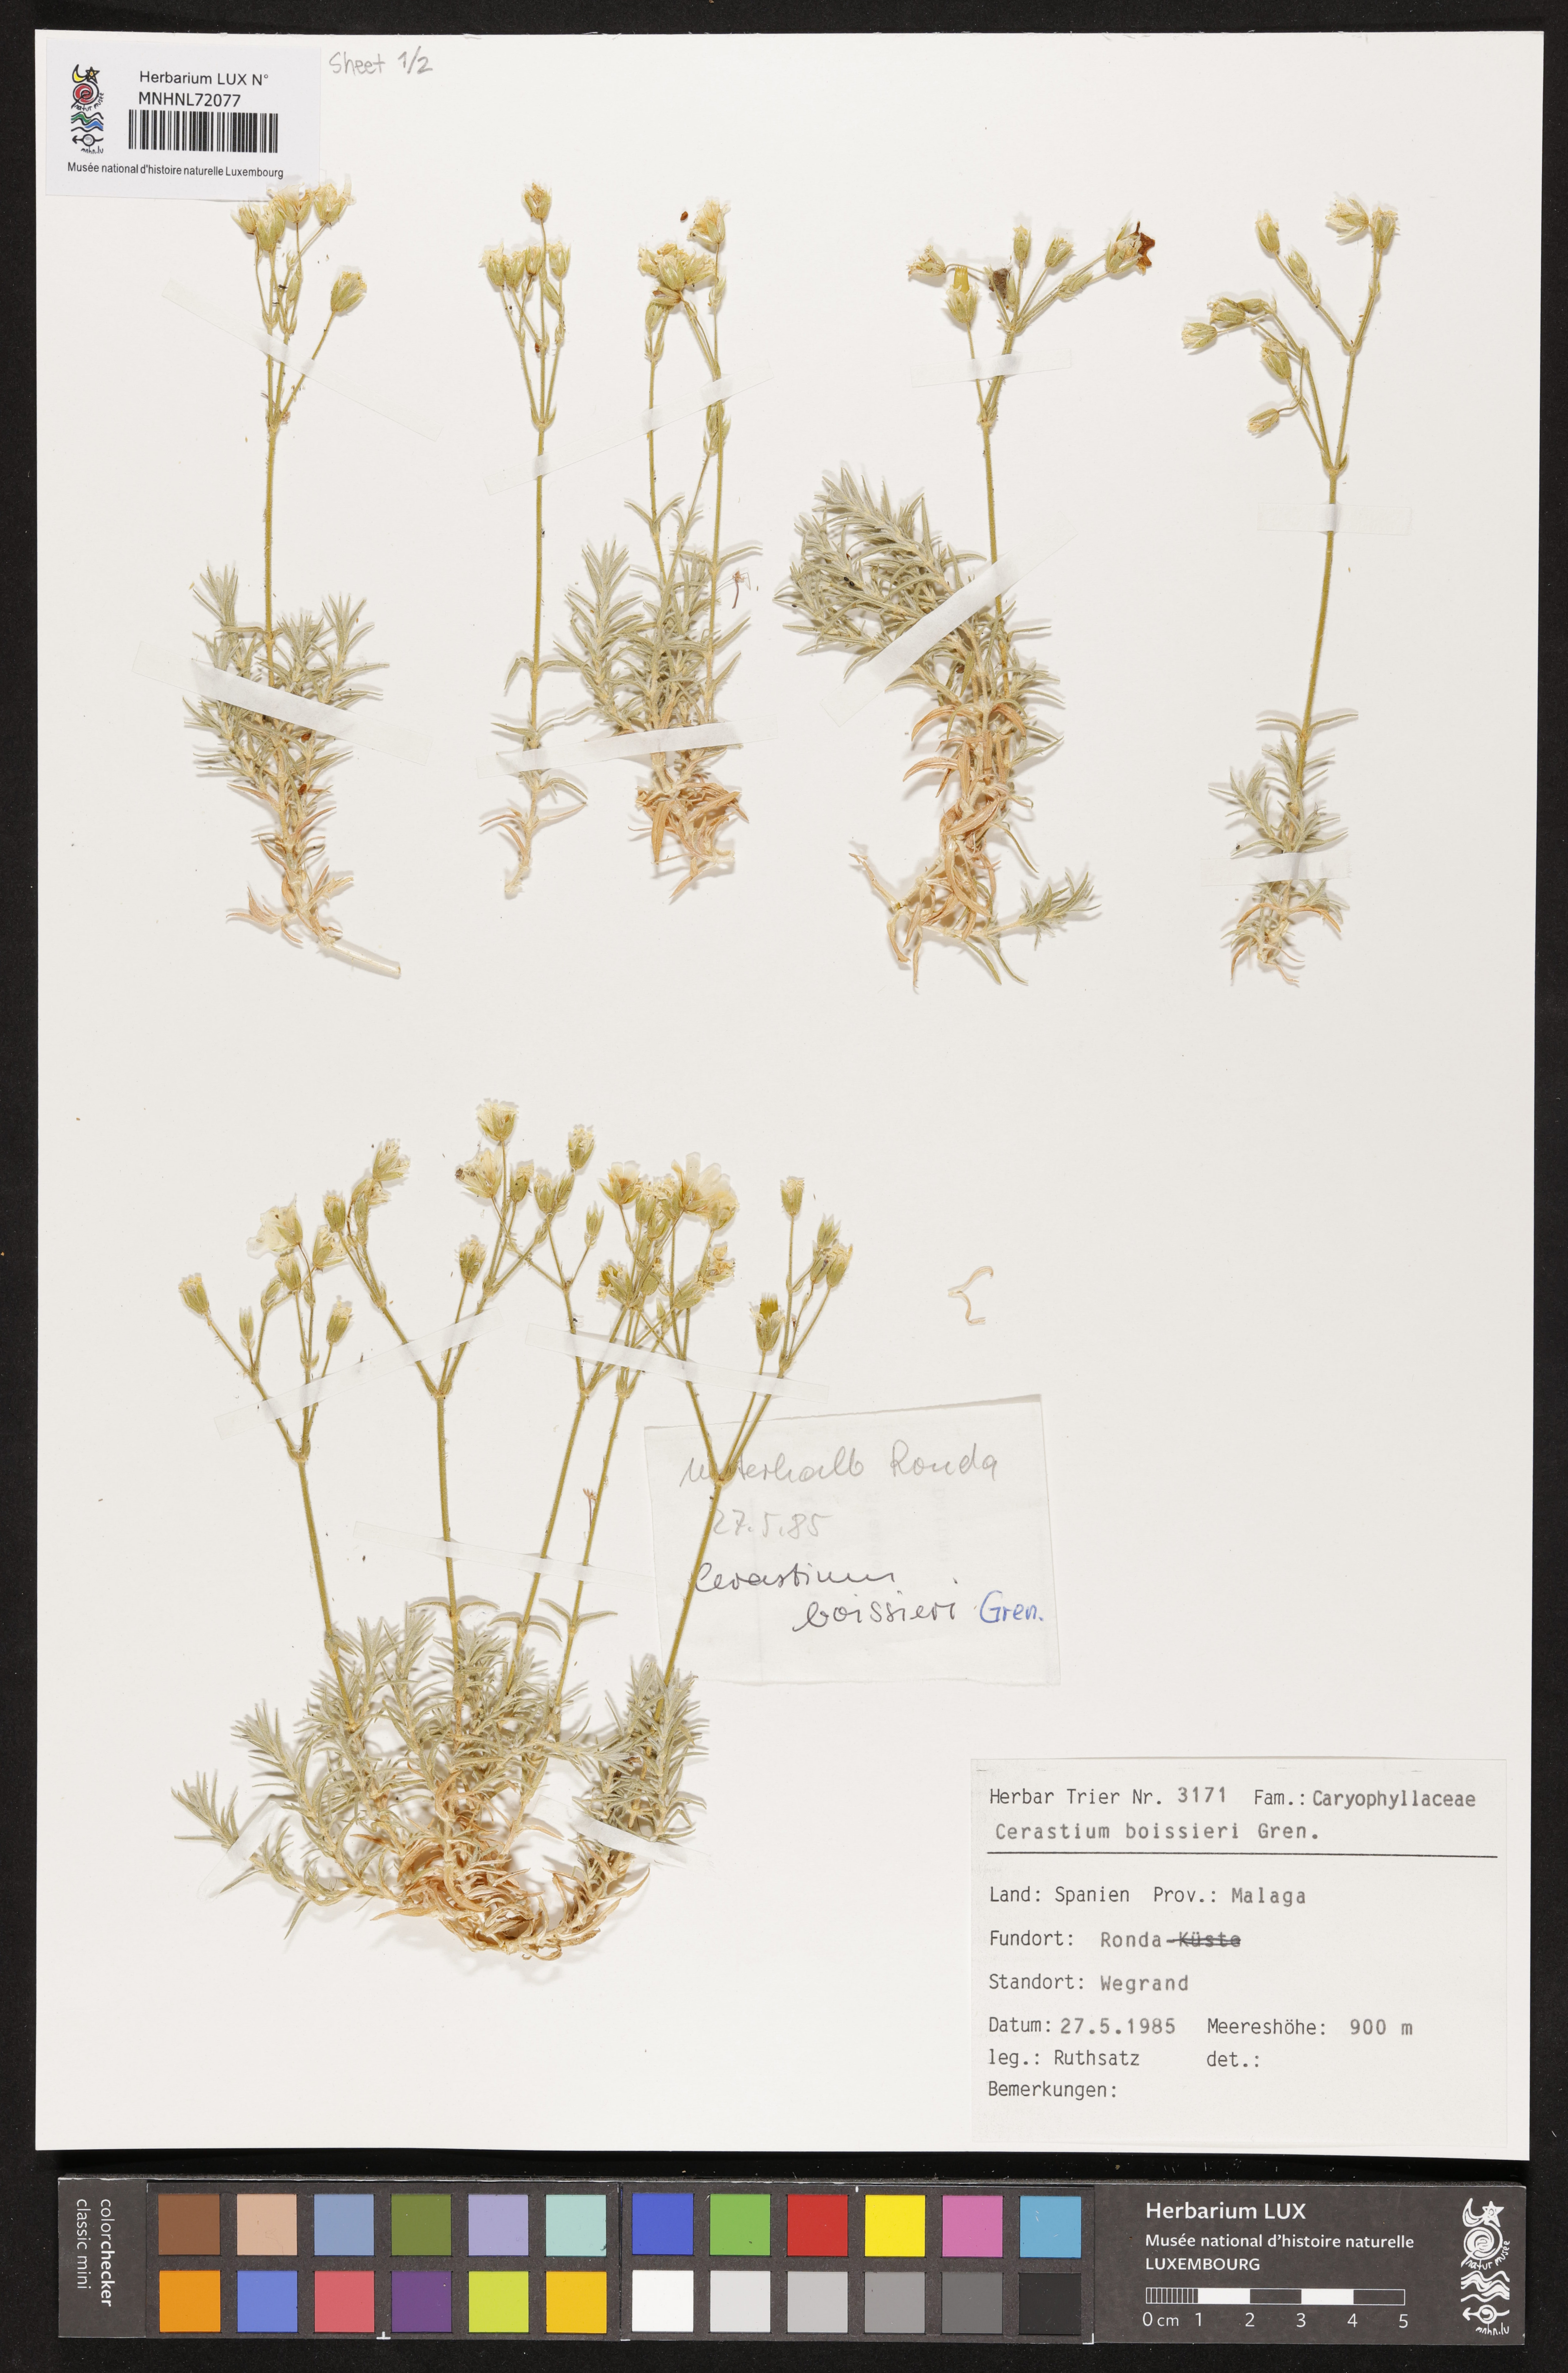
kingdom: Plantae
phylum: Tracheophyta
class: Magnoliopsida
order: Caryophyllales
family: Caryophyllaceae
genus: Cerastium
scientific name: Cerastium gibraltaricum
